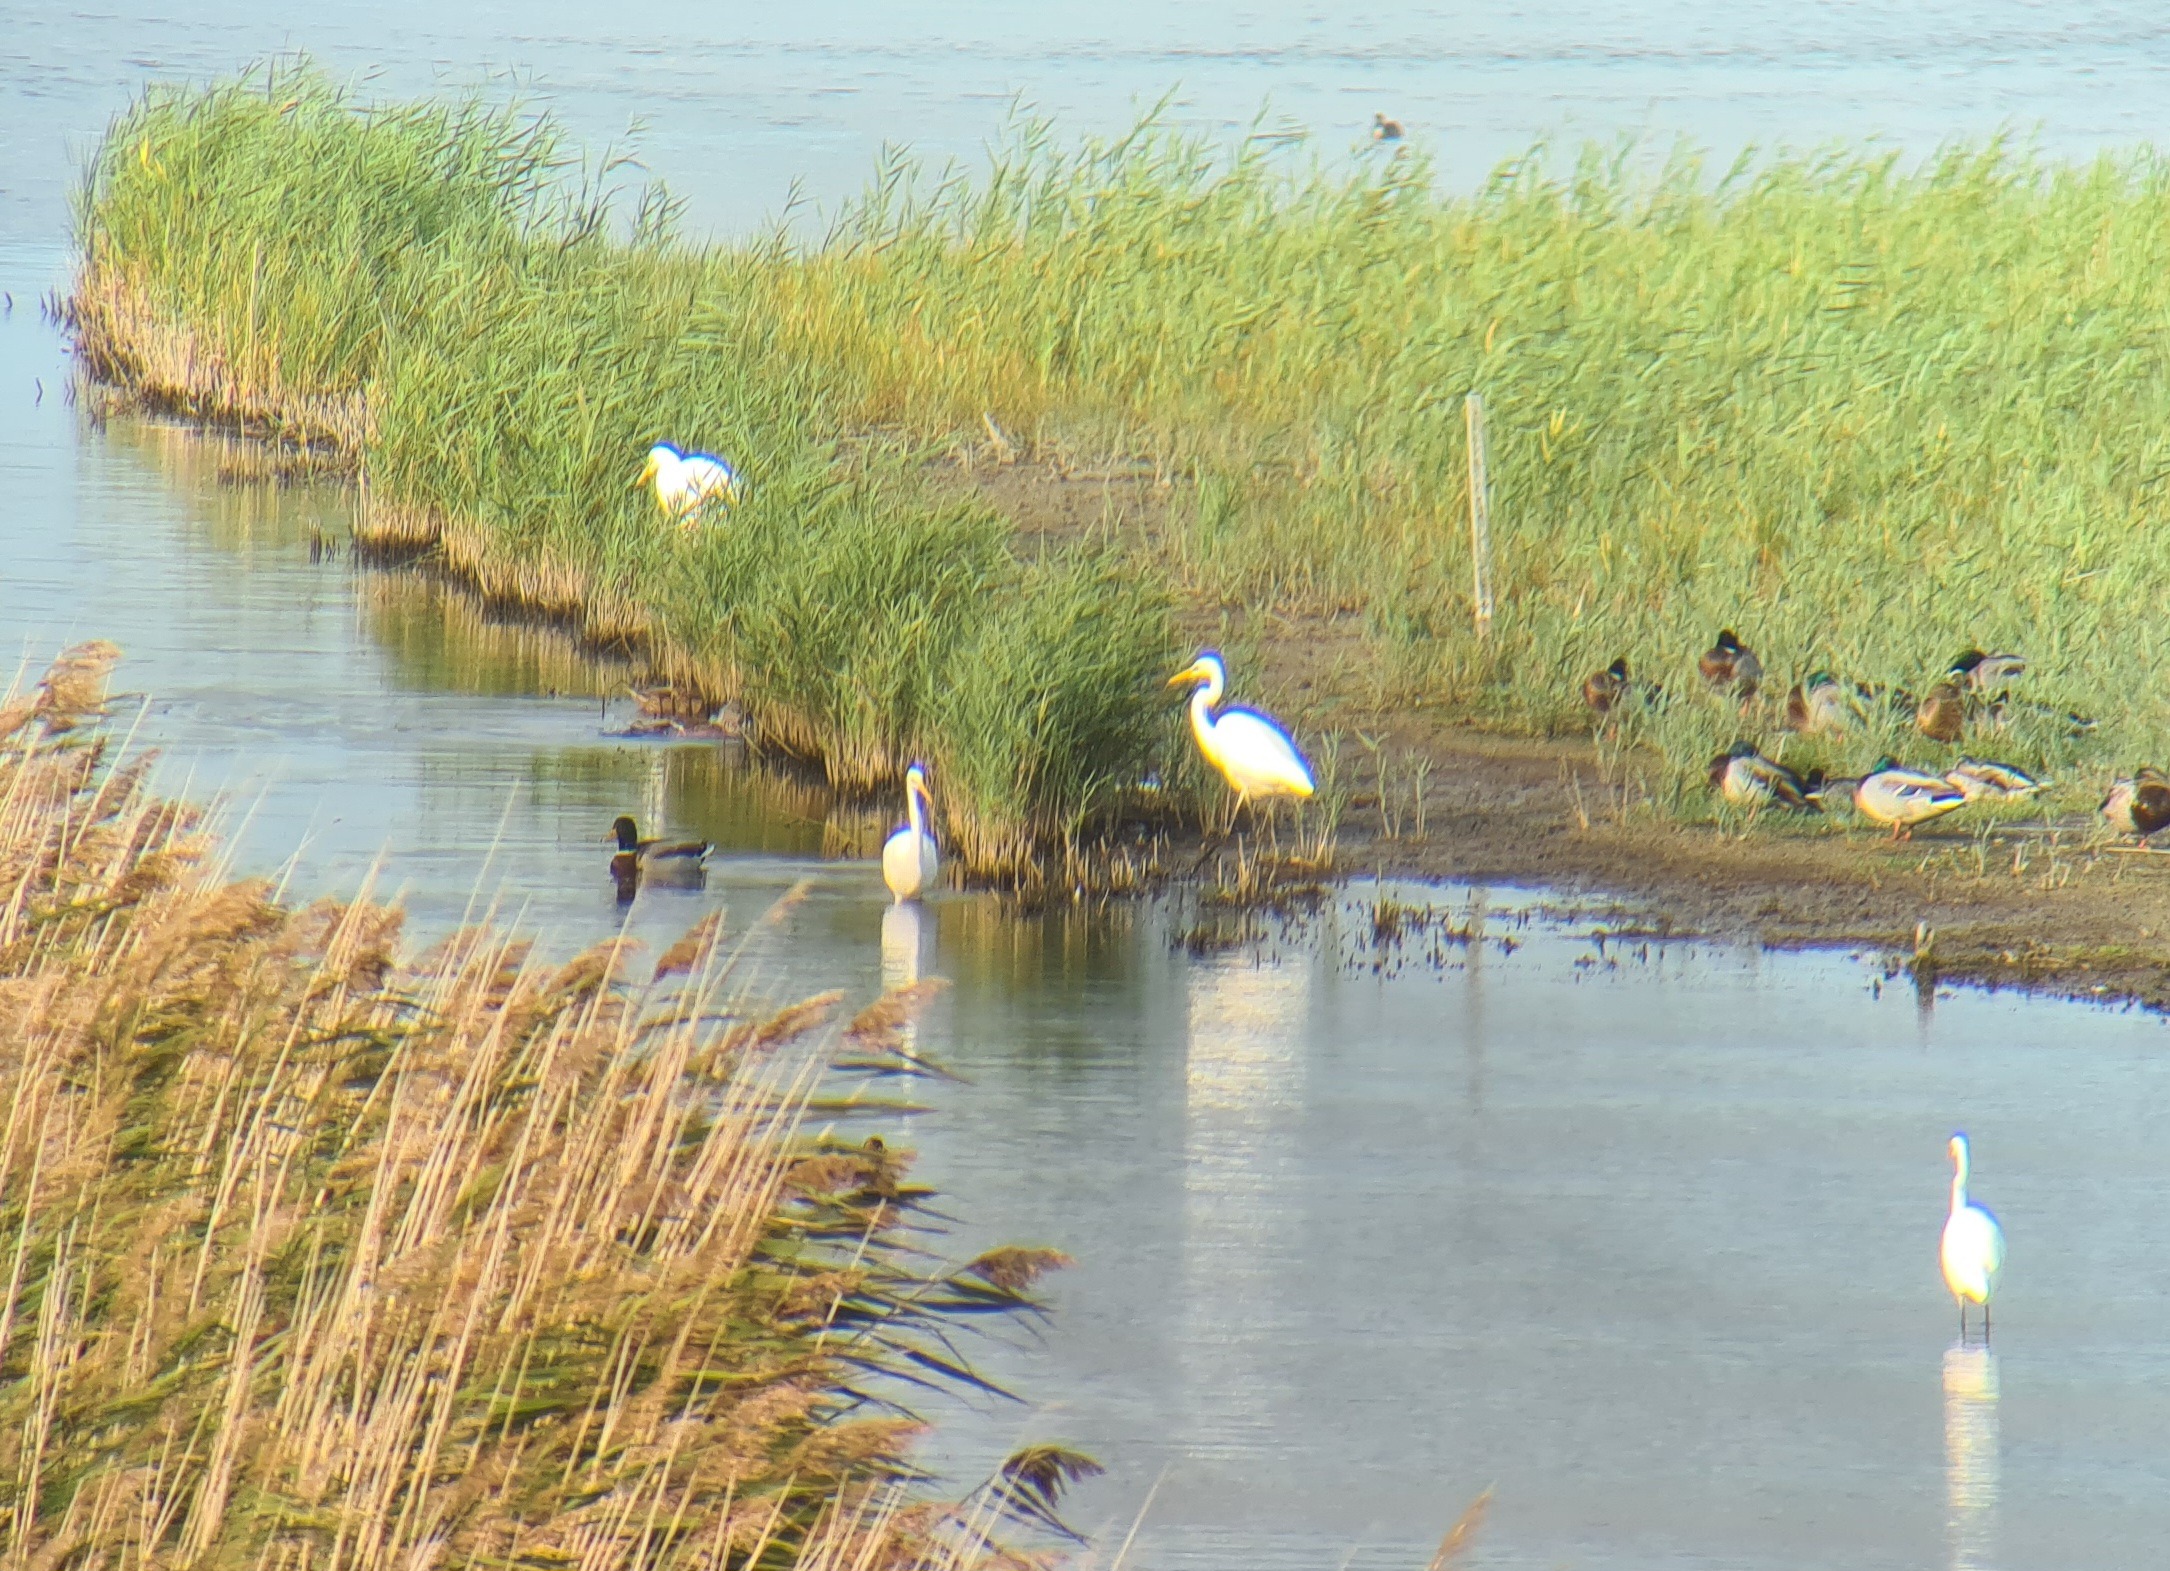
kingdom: Animalia
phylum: Chordata
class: Aves
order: Pelecaniformes
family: Ardeidae
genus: Ardea
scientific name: Ardea alba
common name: Sølvhejre
